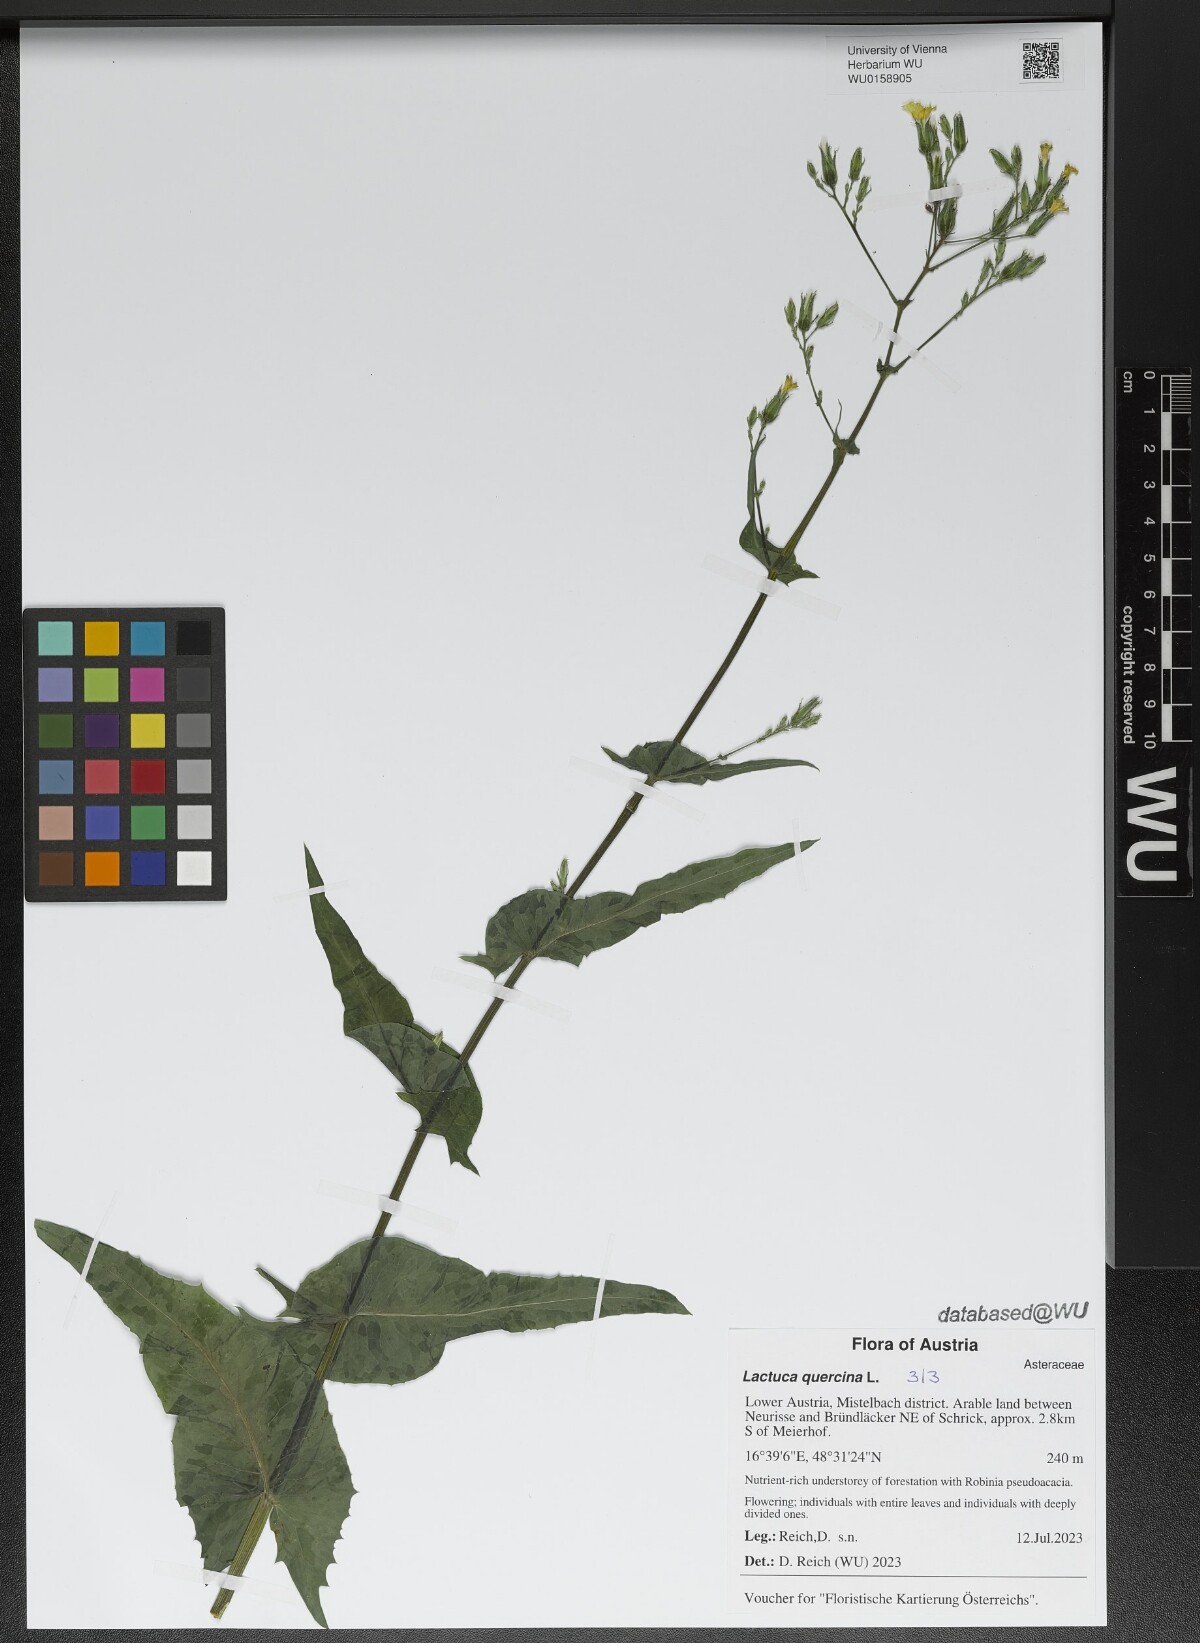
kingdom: Plantae
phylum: Tracheophyta
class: Magnoliopsida
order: Asterales
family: Asteraceae
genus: Lactuca
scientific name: Lactuca quercina
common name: Wild lettuce
